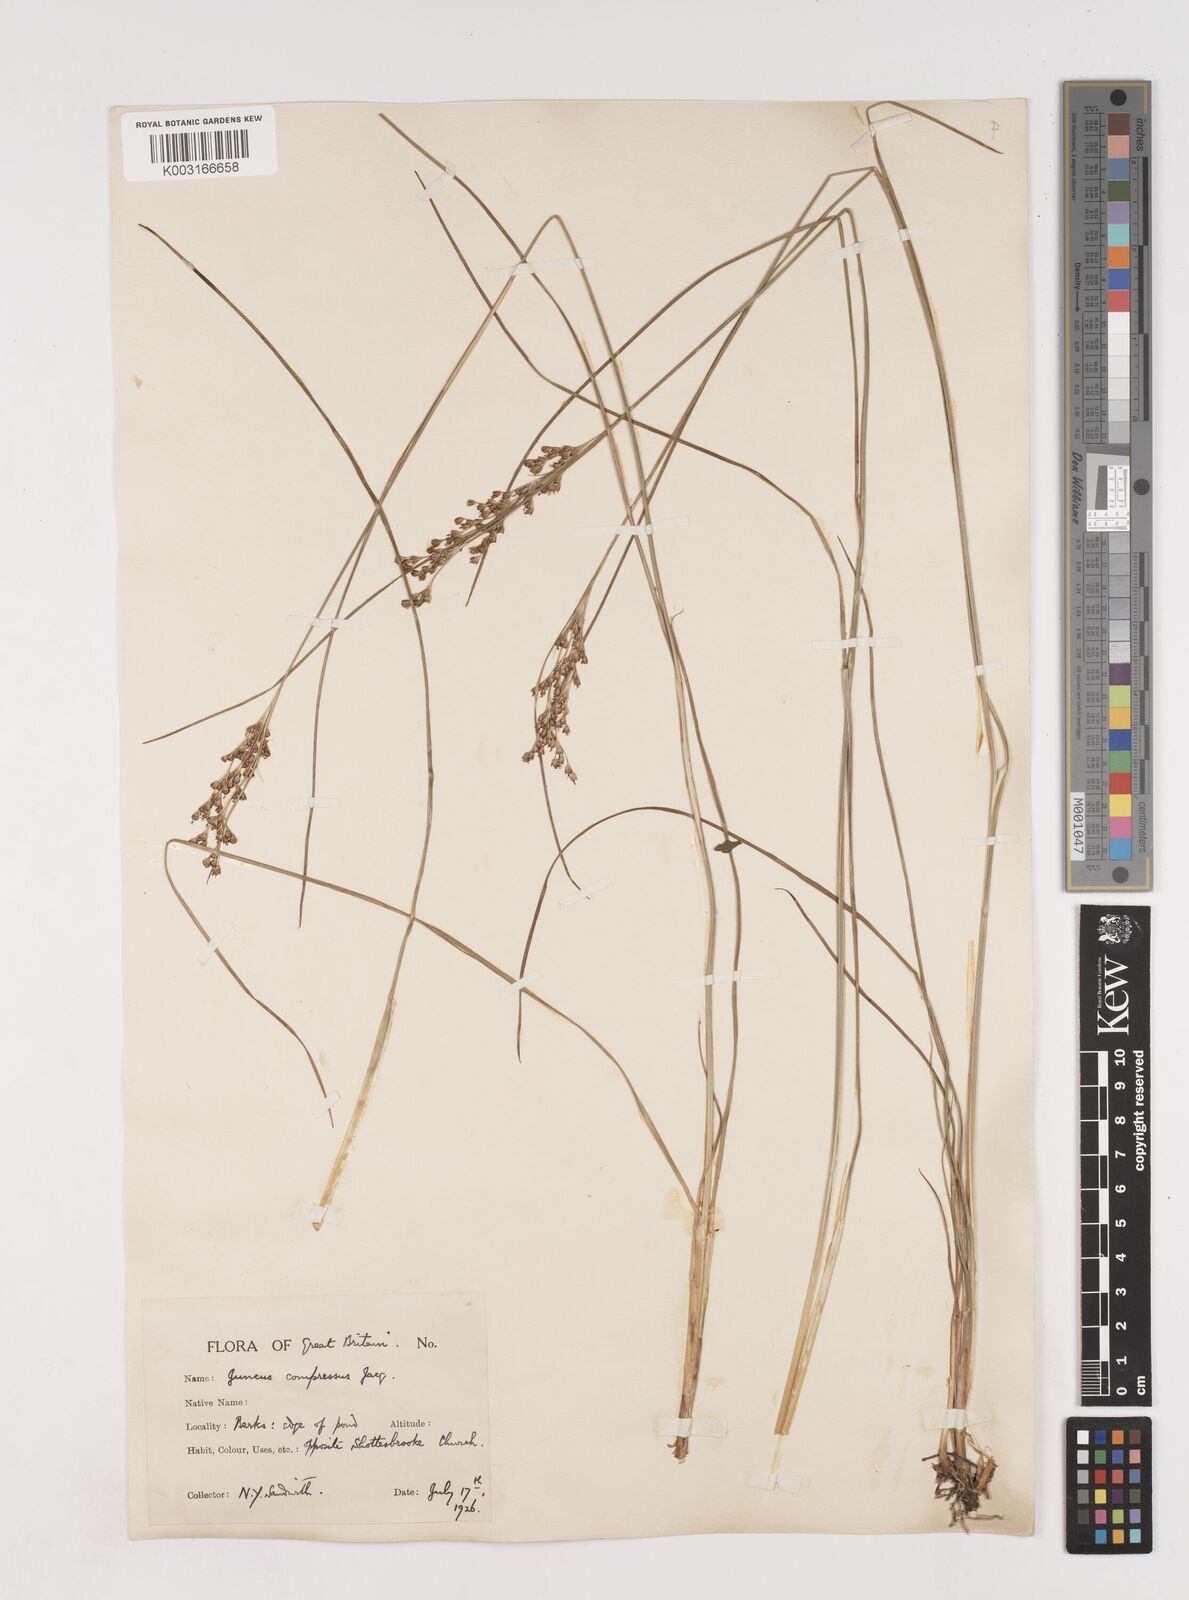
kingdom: Plantae
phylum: Tracheophyta
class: Liliopsida
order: Poales
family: Juncaceae
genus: Juncus
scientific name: Juncus compressus
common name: Round-fruited rush
